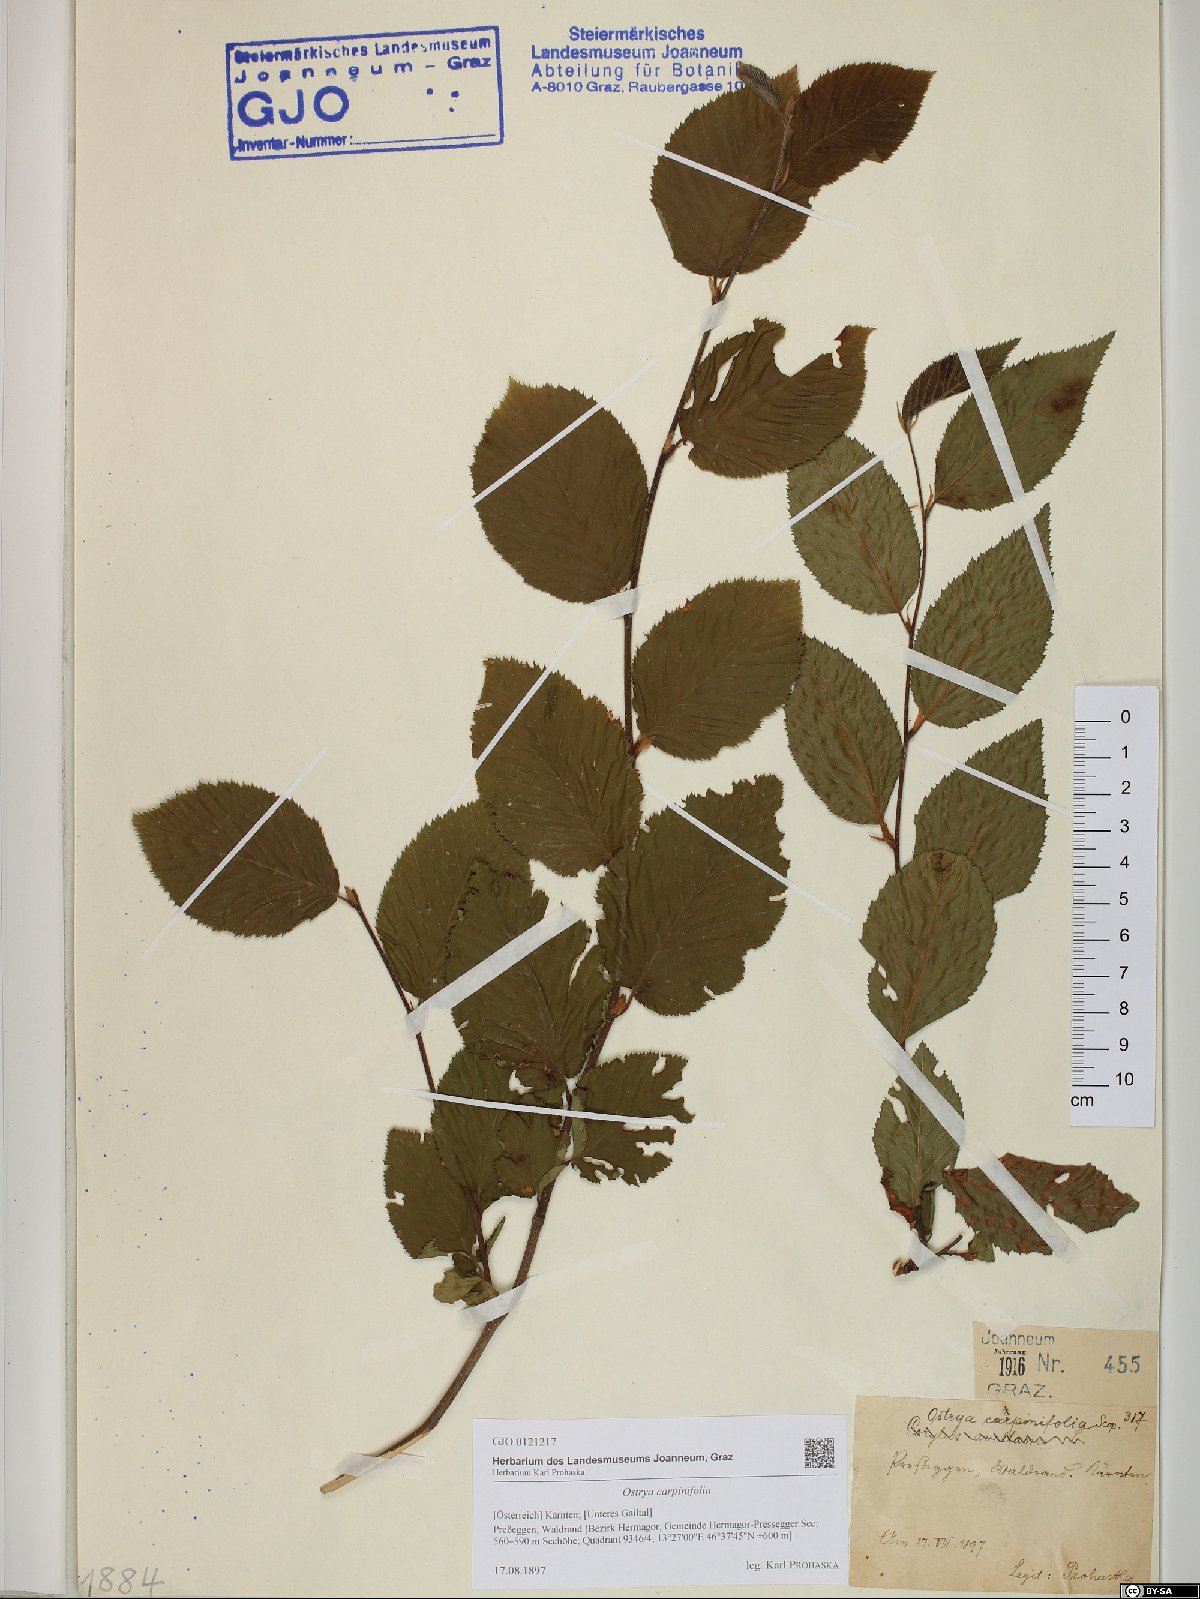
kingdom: Plantae
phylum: Tracheophyta
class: Magnoliopsida
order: Fagales
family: Betulaceae
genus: Ostrya
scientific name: Ostrya carpinifolia
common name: European hop-hornbeam
